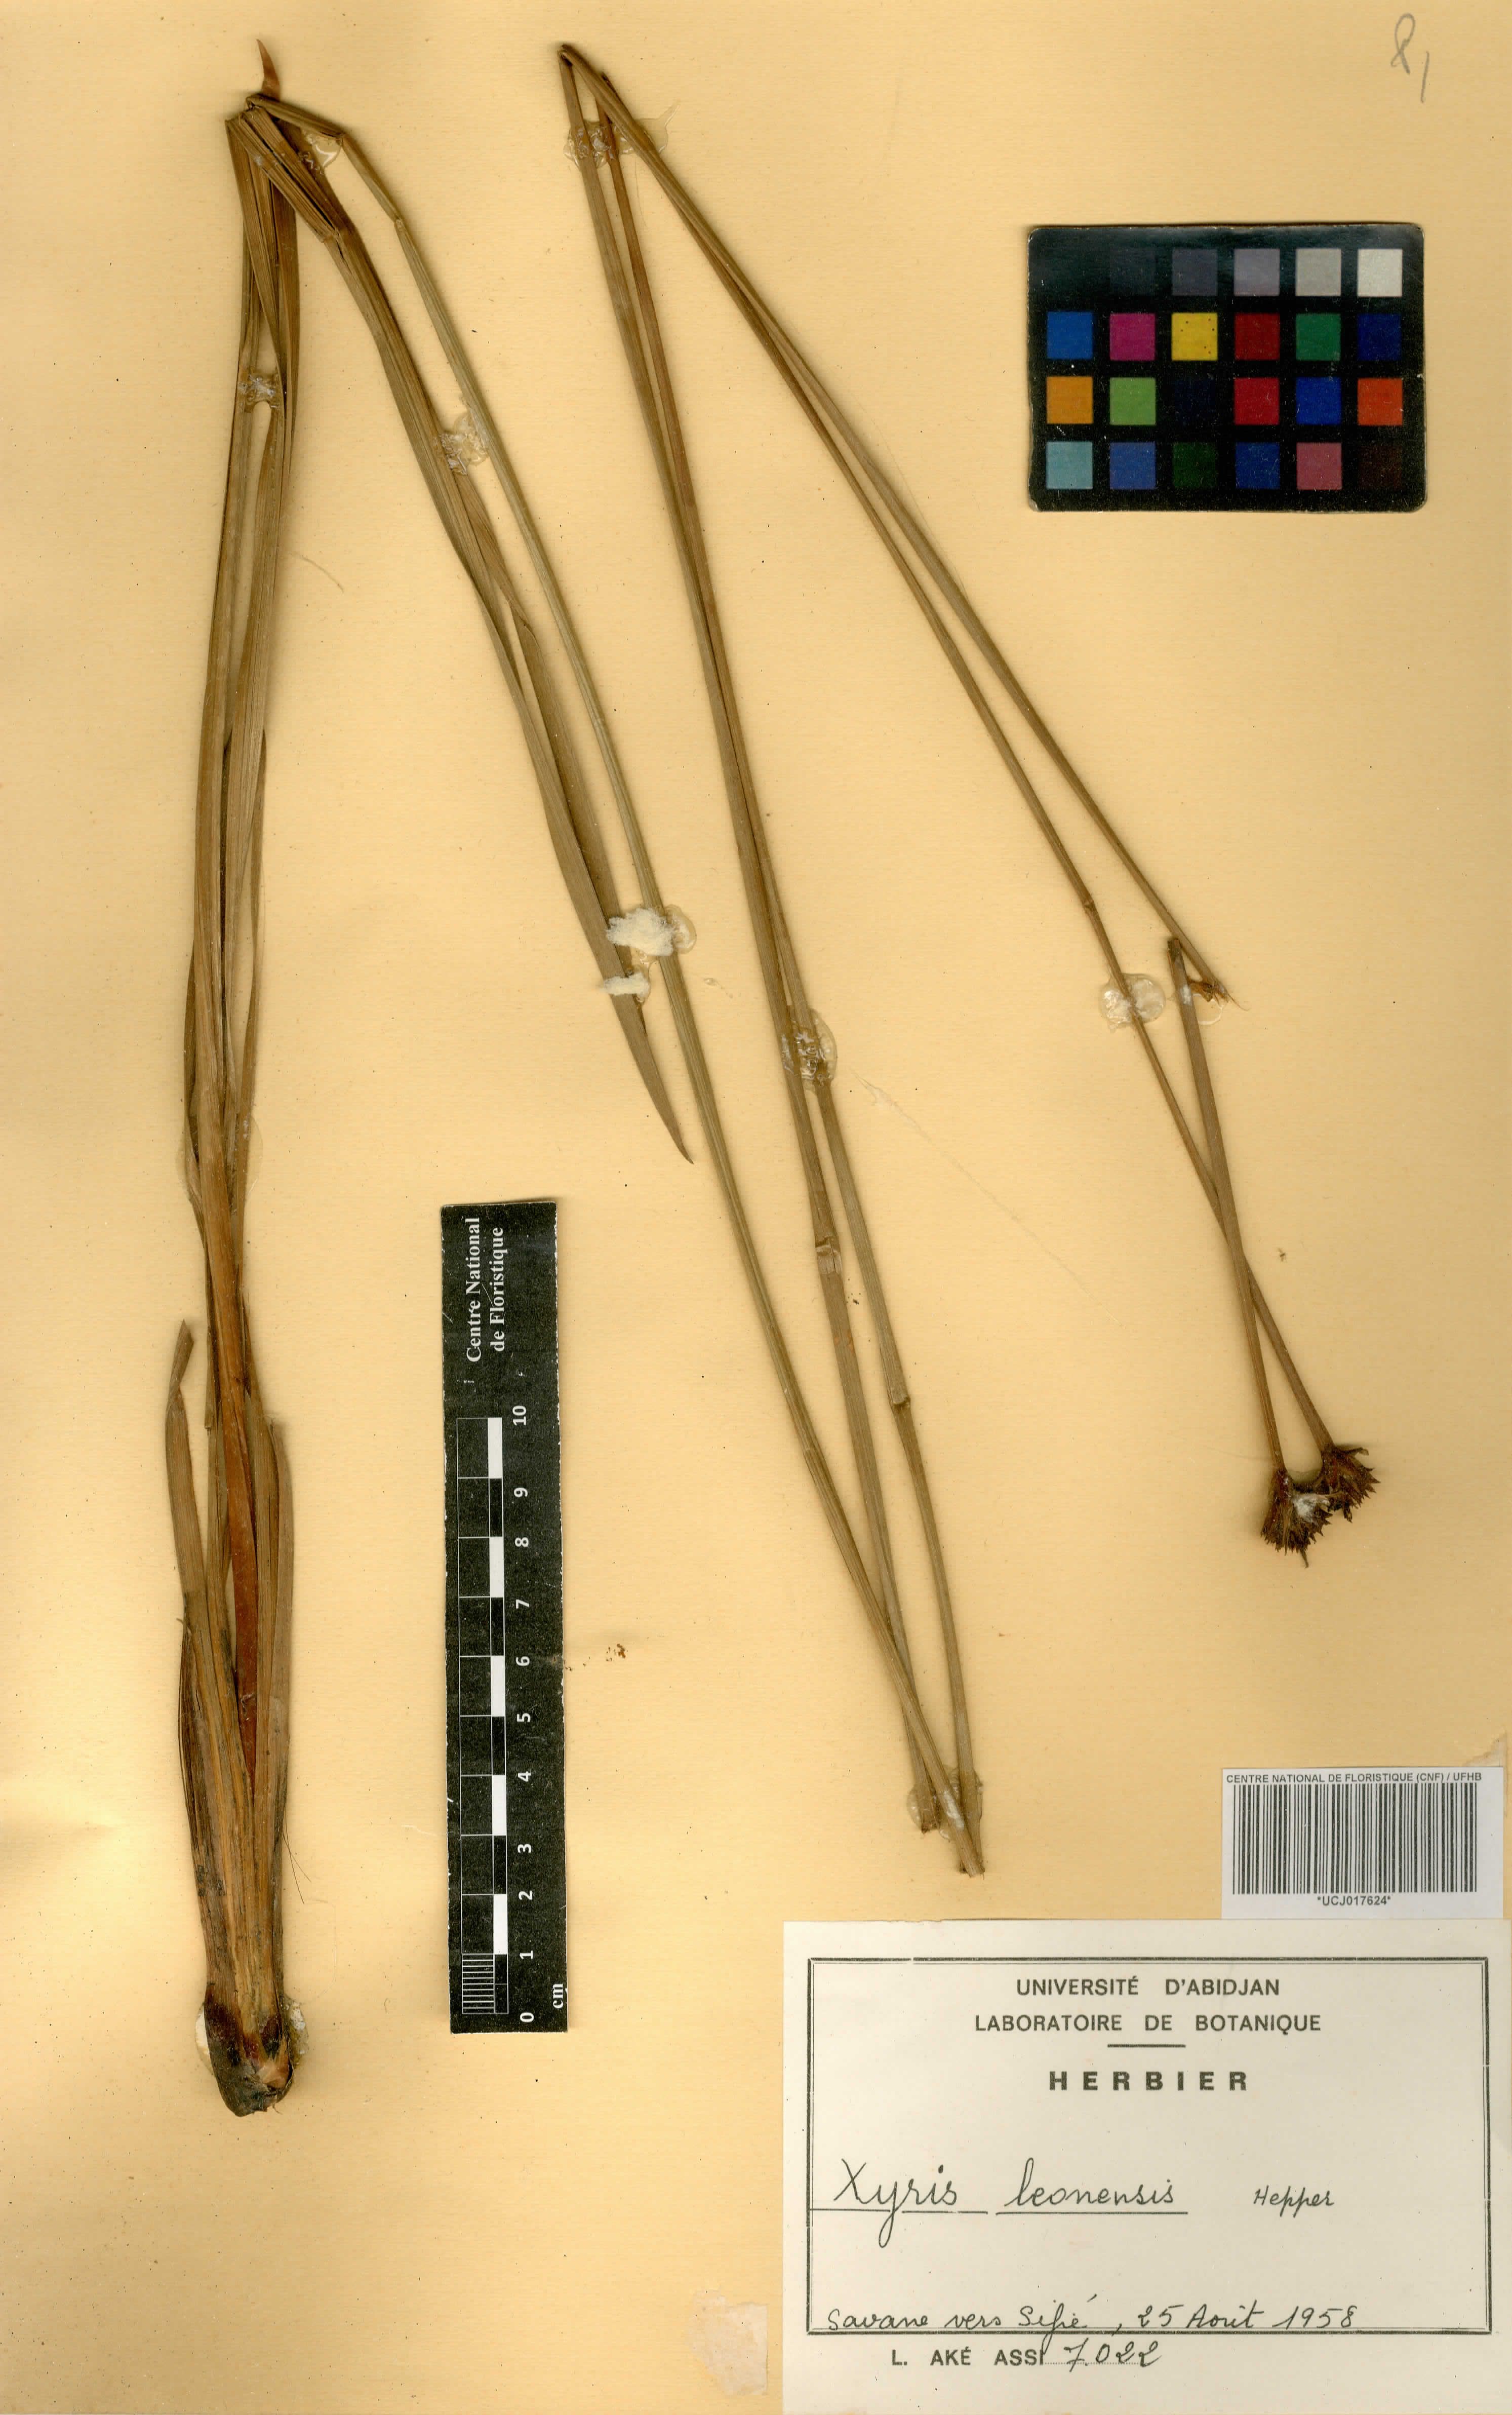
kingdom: Plantae
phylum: Tracheophyta
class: Liliopsida
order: Poales
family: Xyridaceae
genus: Xyris
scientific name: Xyris leonensis
